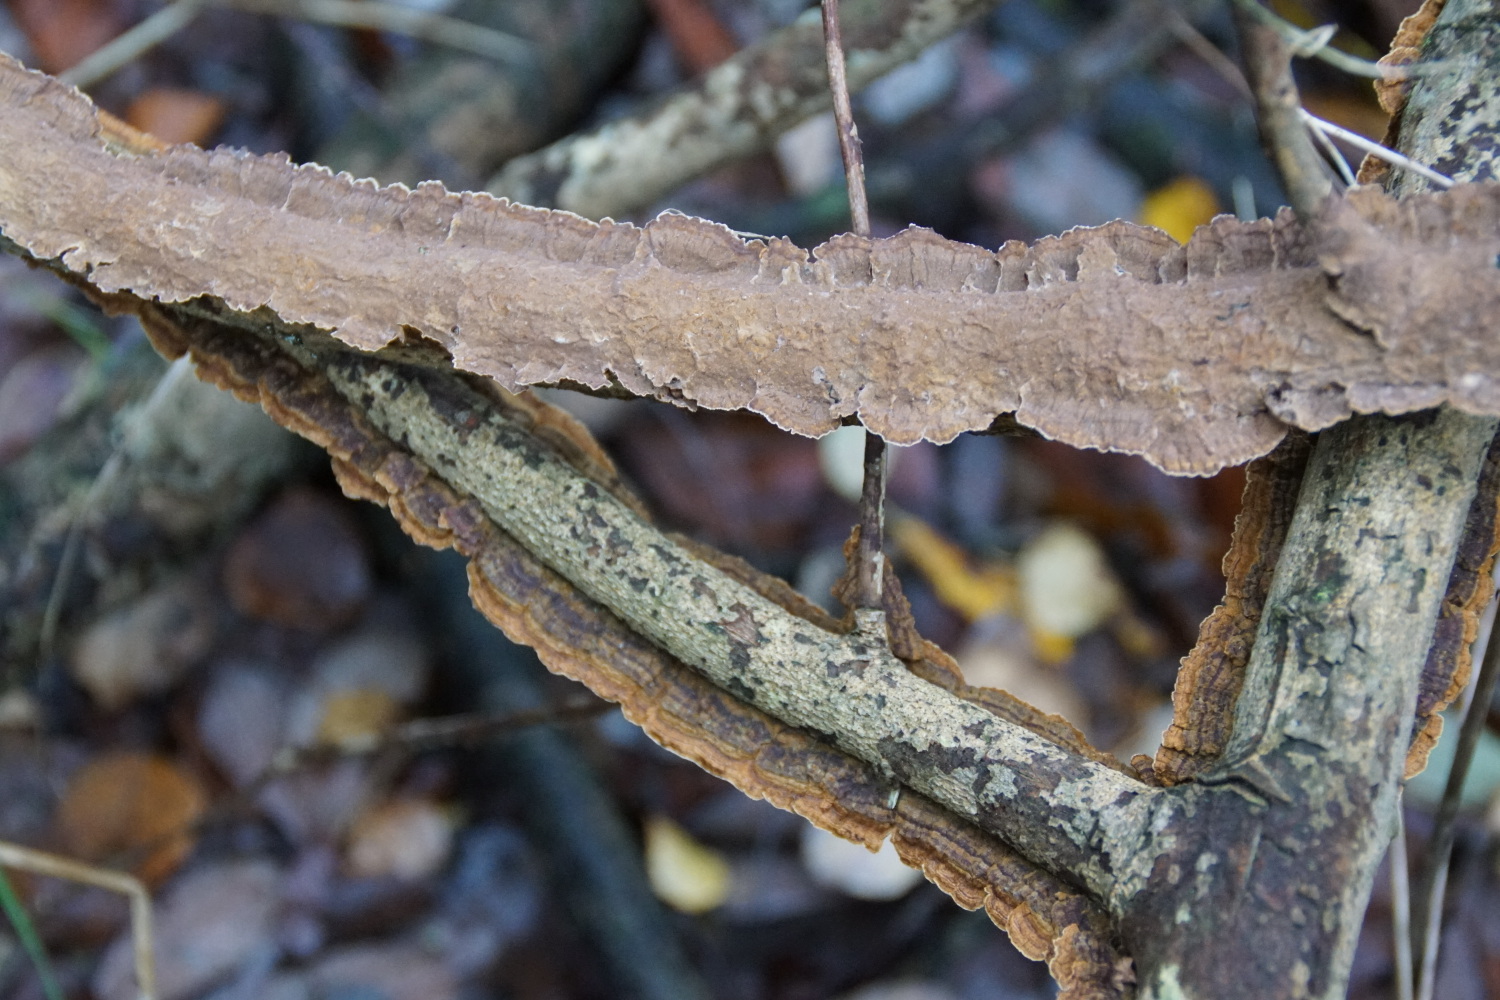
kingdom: Fungi
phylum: Basidiomycota
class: Agaricomycetes
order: Hymenochaetales
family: Hymenochaetaceae
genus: Hydnoporia
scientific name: Hydnoporia tabacina
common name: tobaksbrun ruslædersvamp
